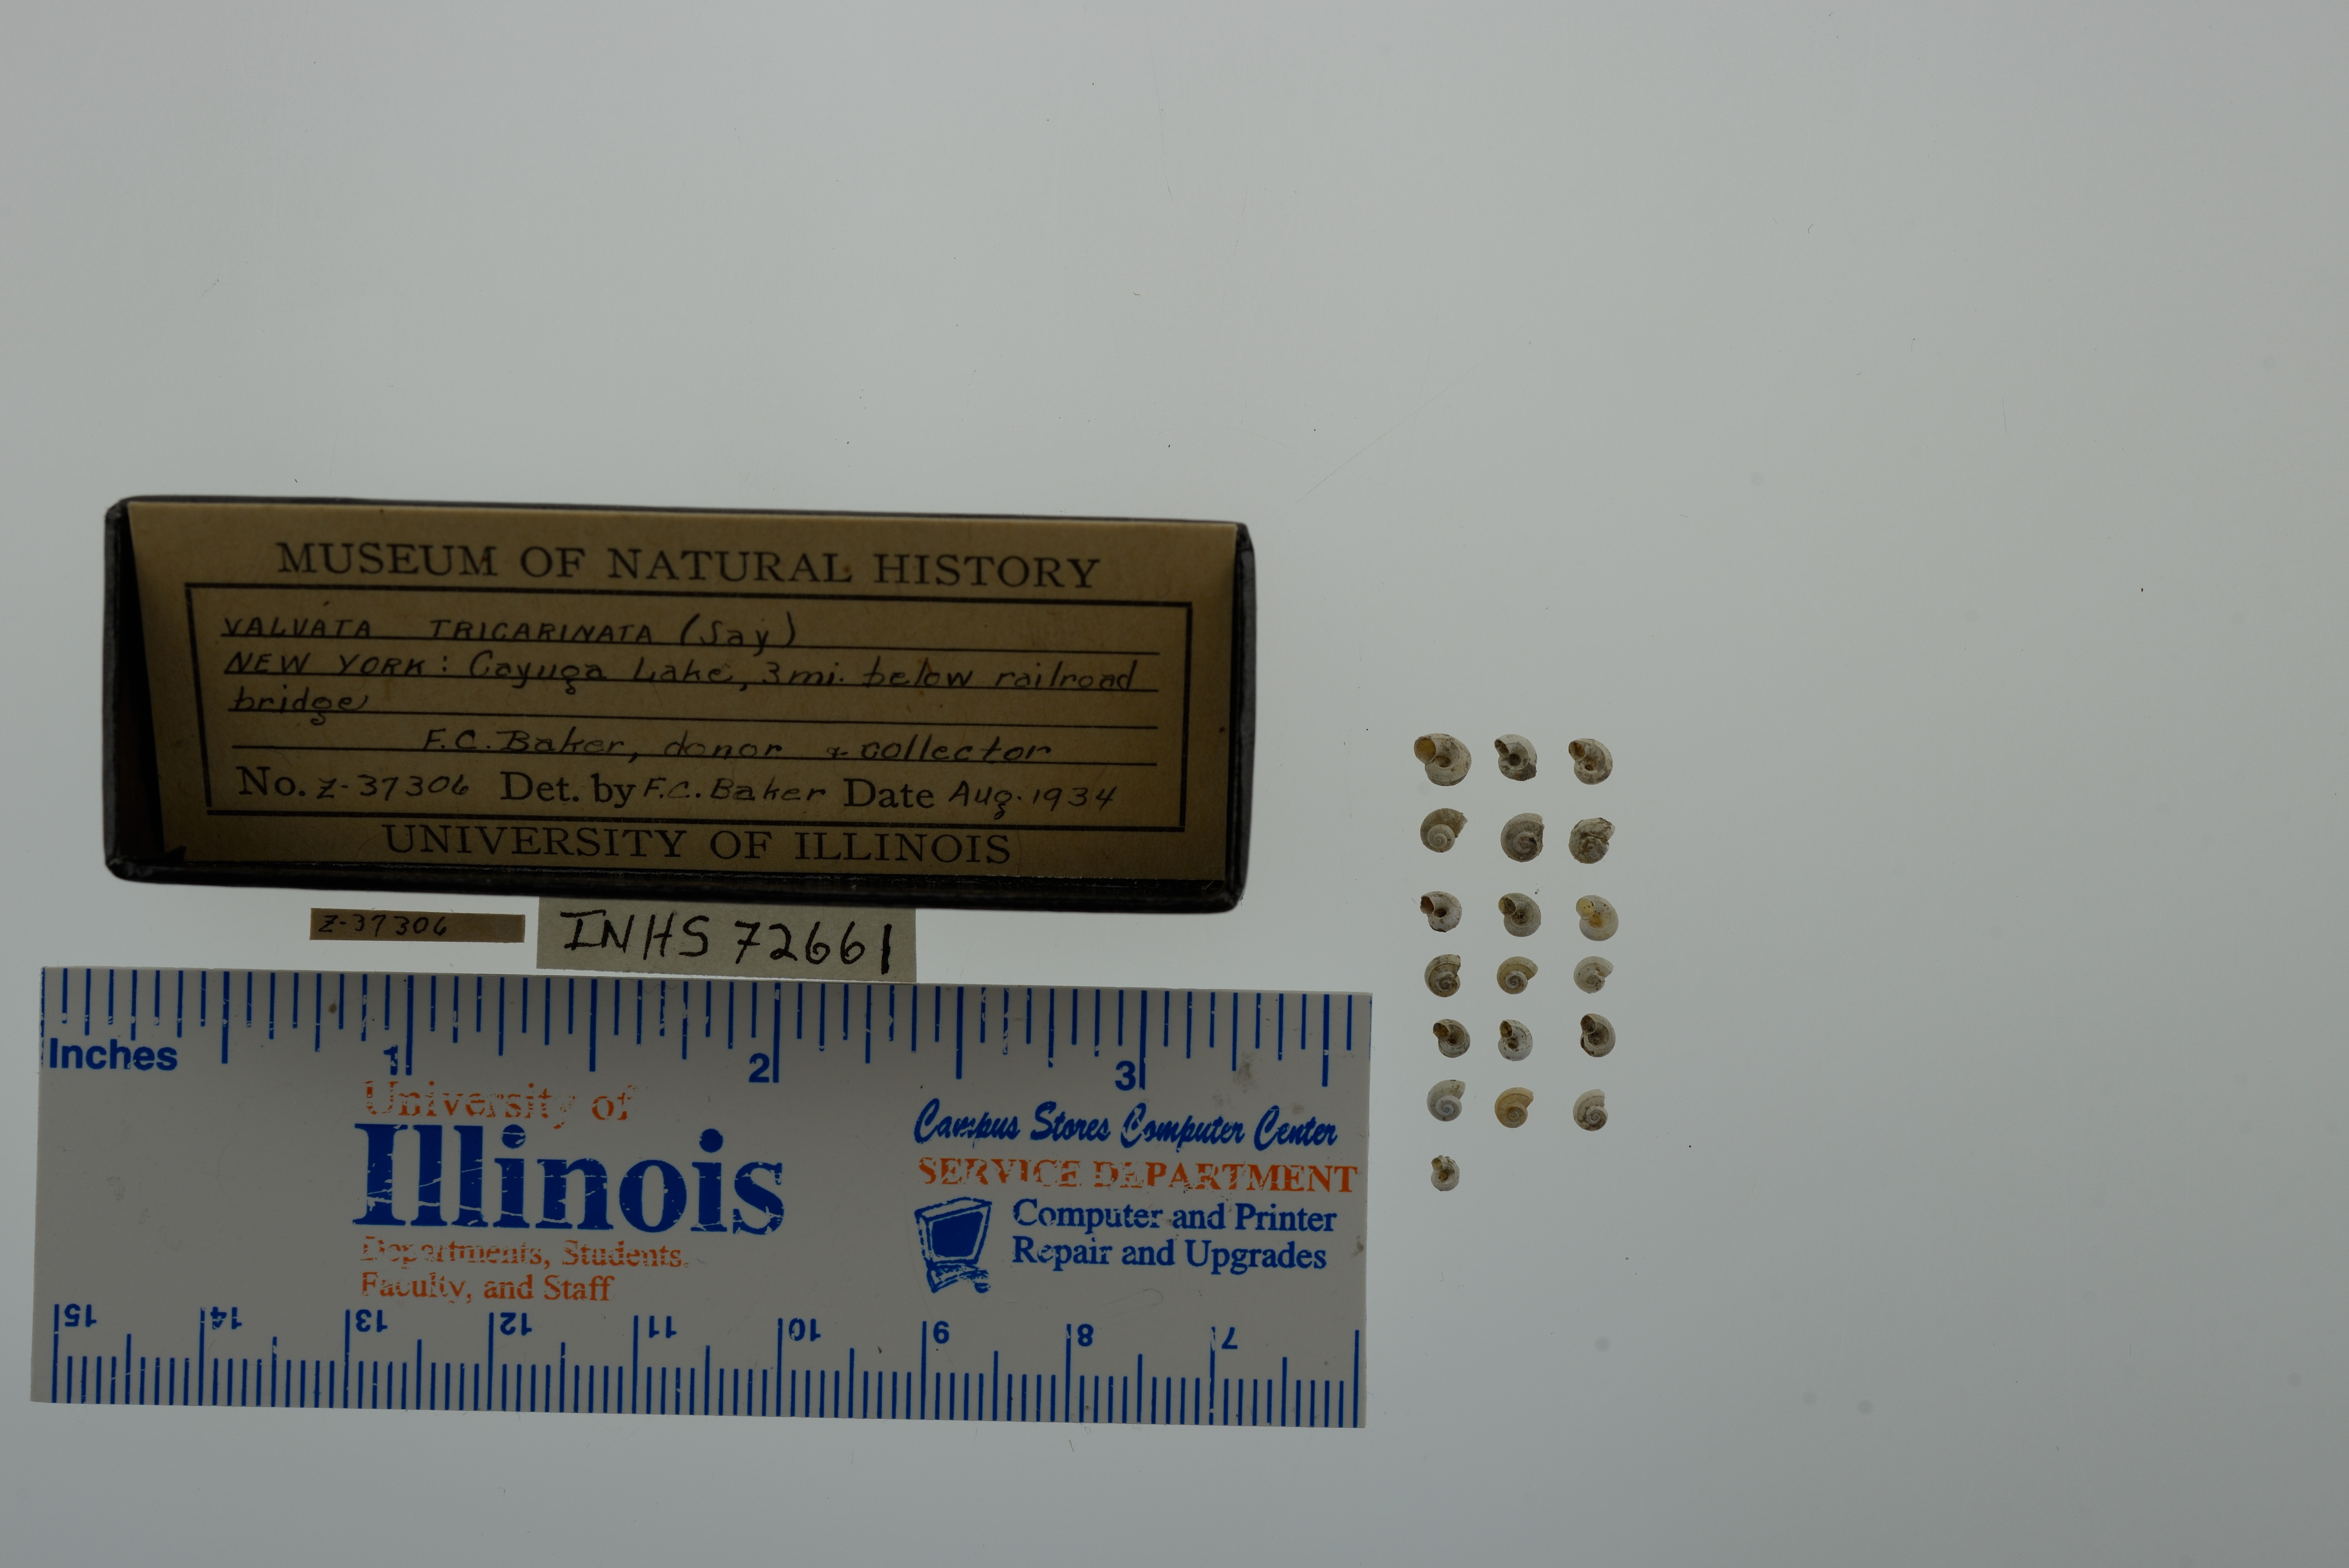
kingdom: Animalia
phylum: Mollusca
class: Gastropoda
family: Valvatidae
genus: Valvata
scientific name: Valvata tricarinata
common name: Three-ridge valvata
